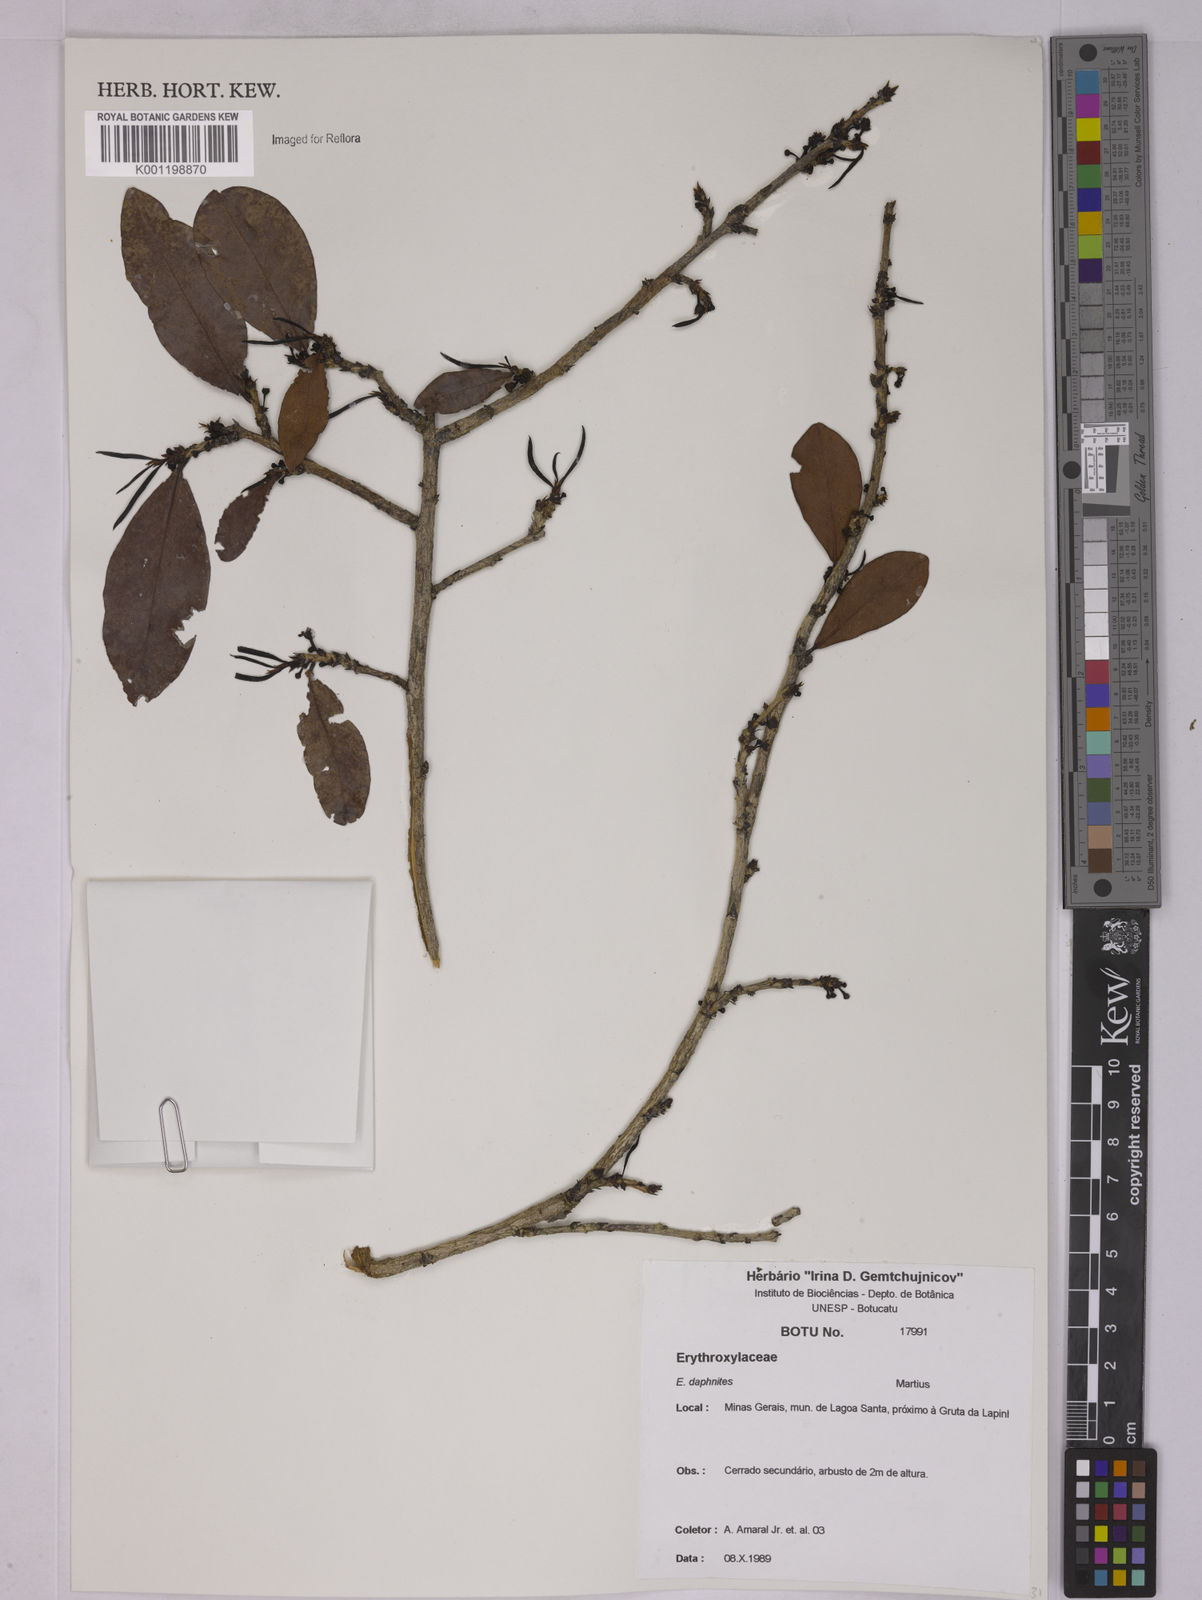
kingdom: Plantae
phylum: Tracheophyta
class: Magnoliopsida
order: Malpighiales
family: Erythroxylaceae
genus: Erythroxylum
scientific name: Erythroxylum daphnites
